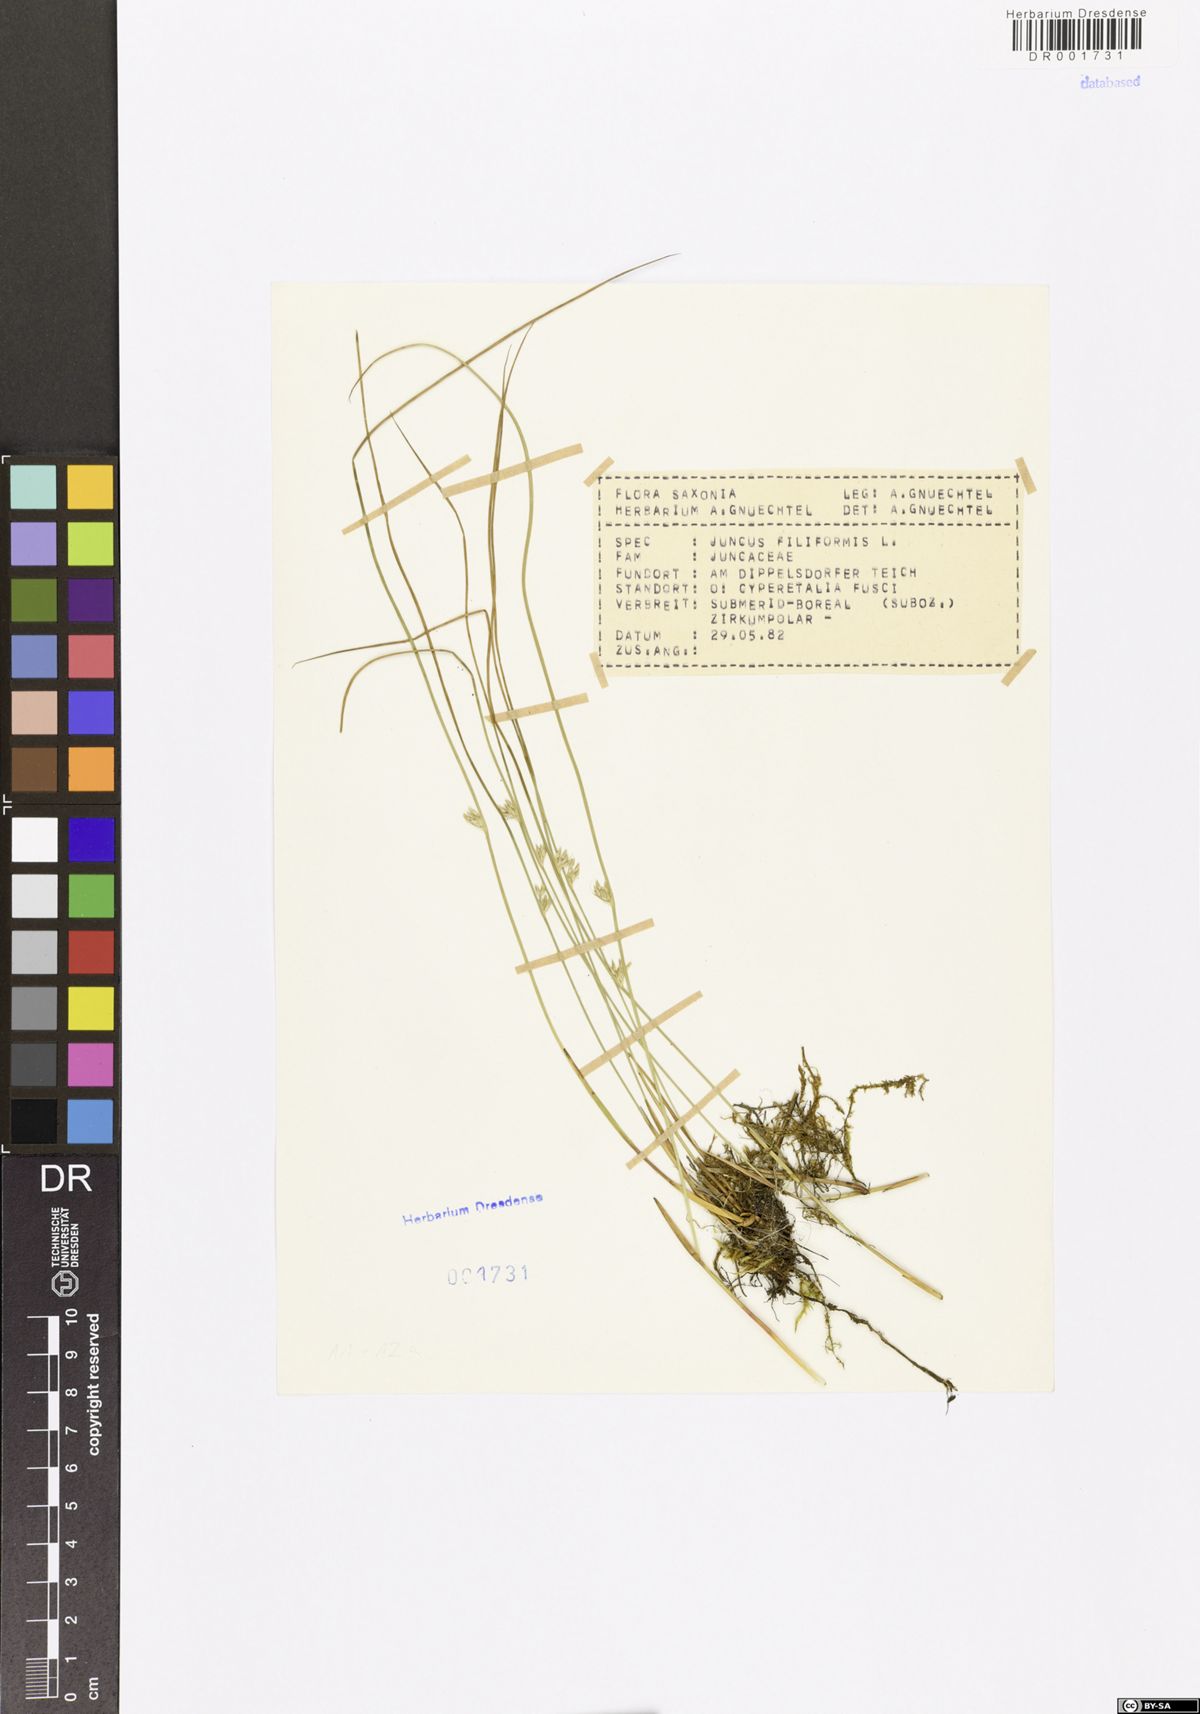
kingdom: Plantae
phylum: Tracheophyta
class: Liliopsida
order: Poales
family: Juncaceae
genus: Juncus
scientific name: Juncus filiformis
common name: Thread rush
